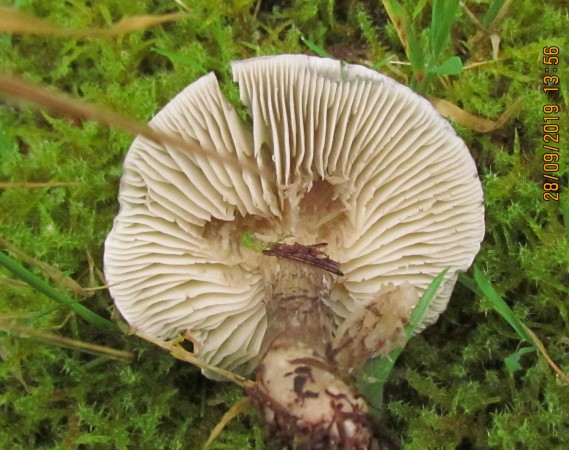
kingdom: Fungi
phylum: Basidiomycota
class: Agaricomycetes
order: Agaricales
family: Tricholomataceae
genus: Tricholoma
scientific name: Tricholoma
